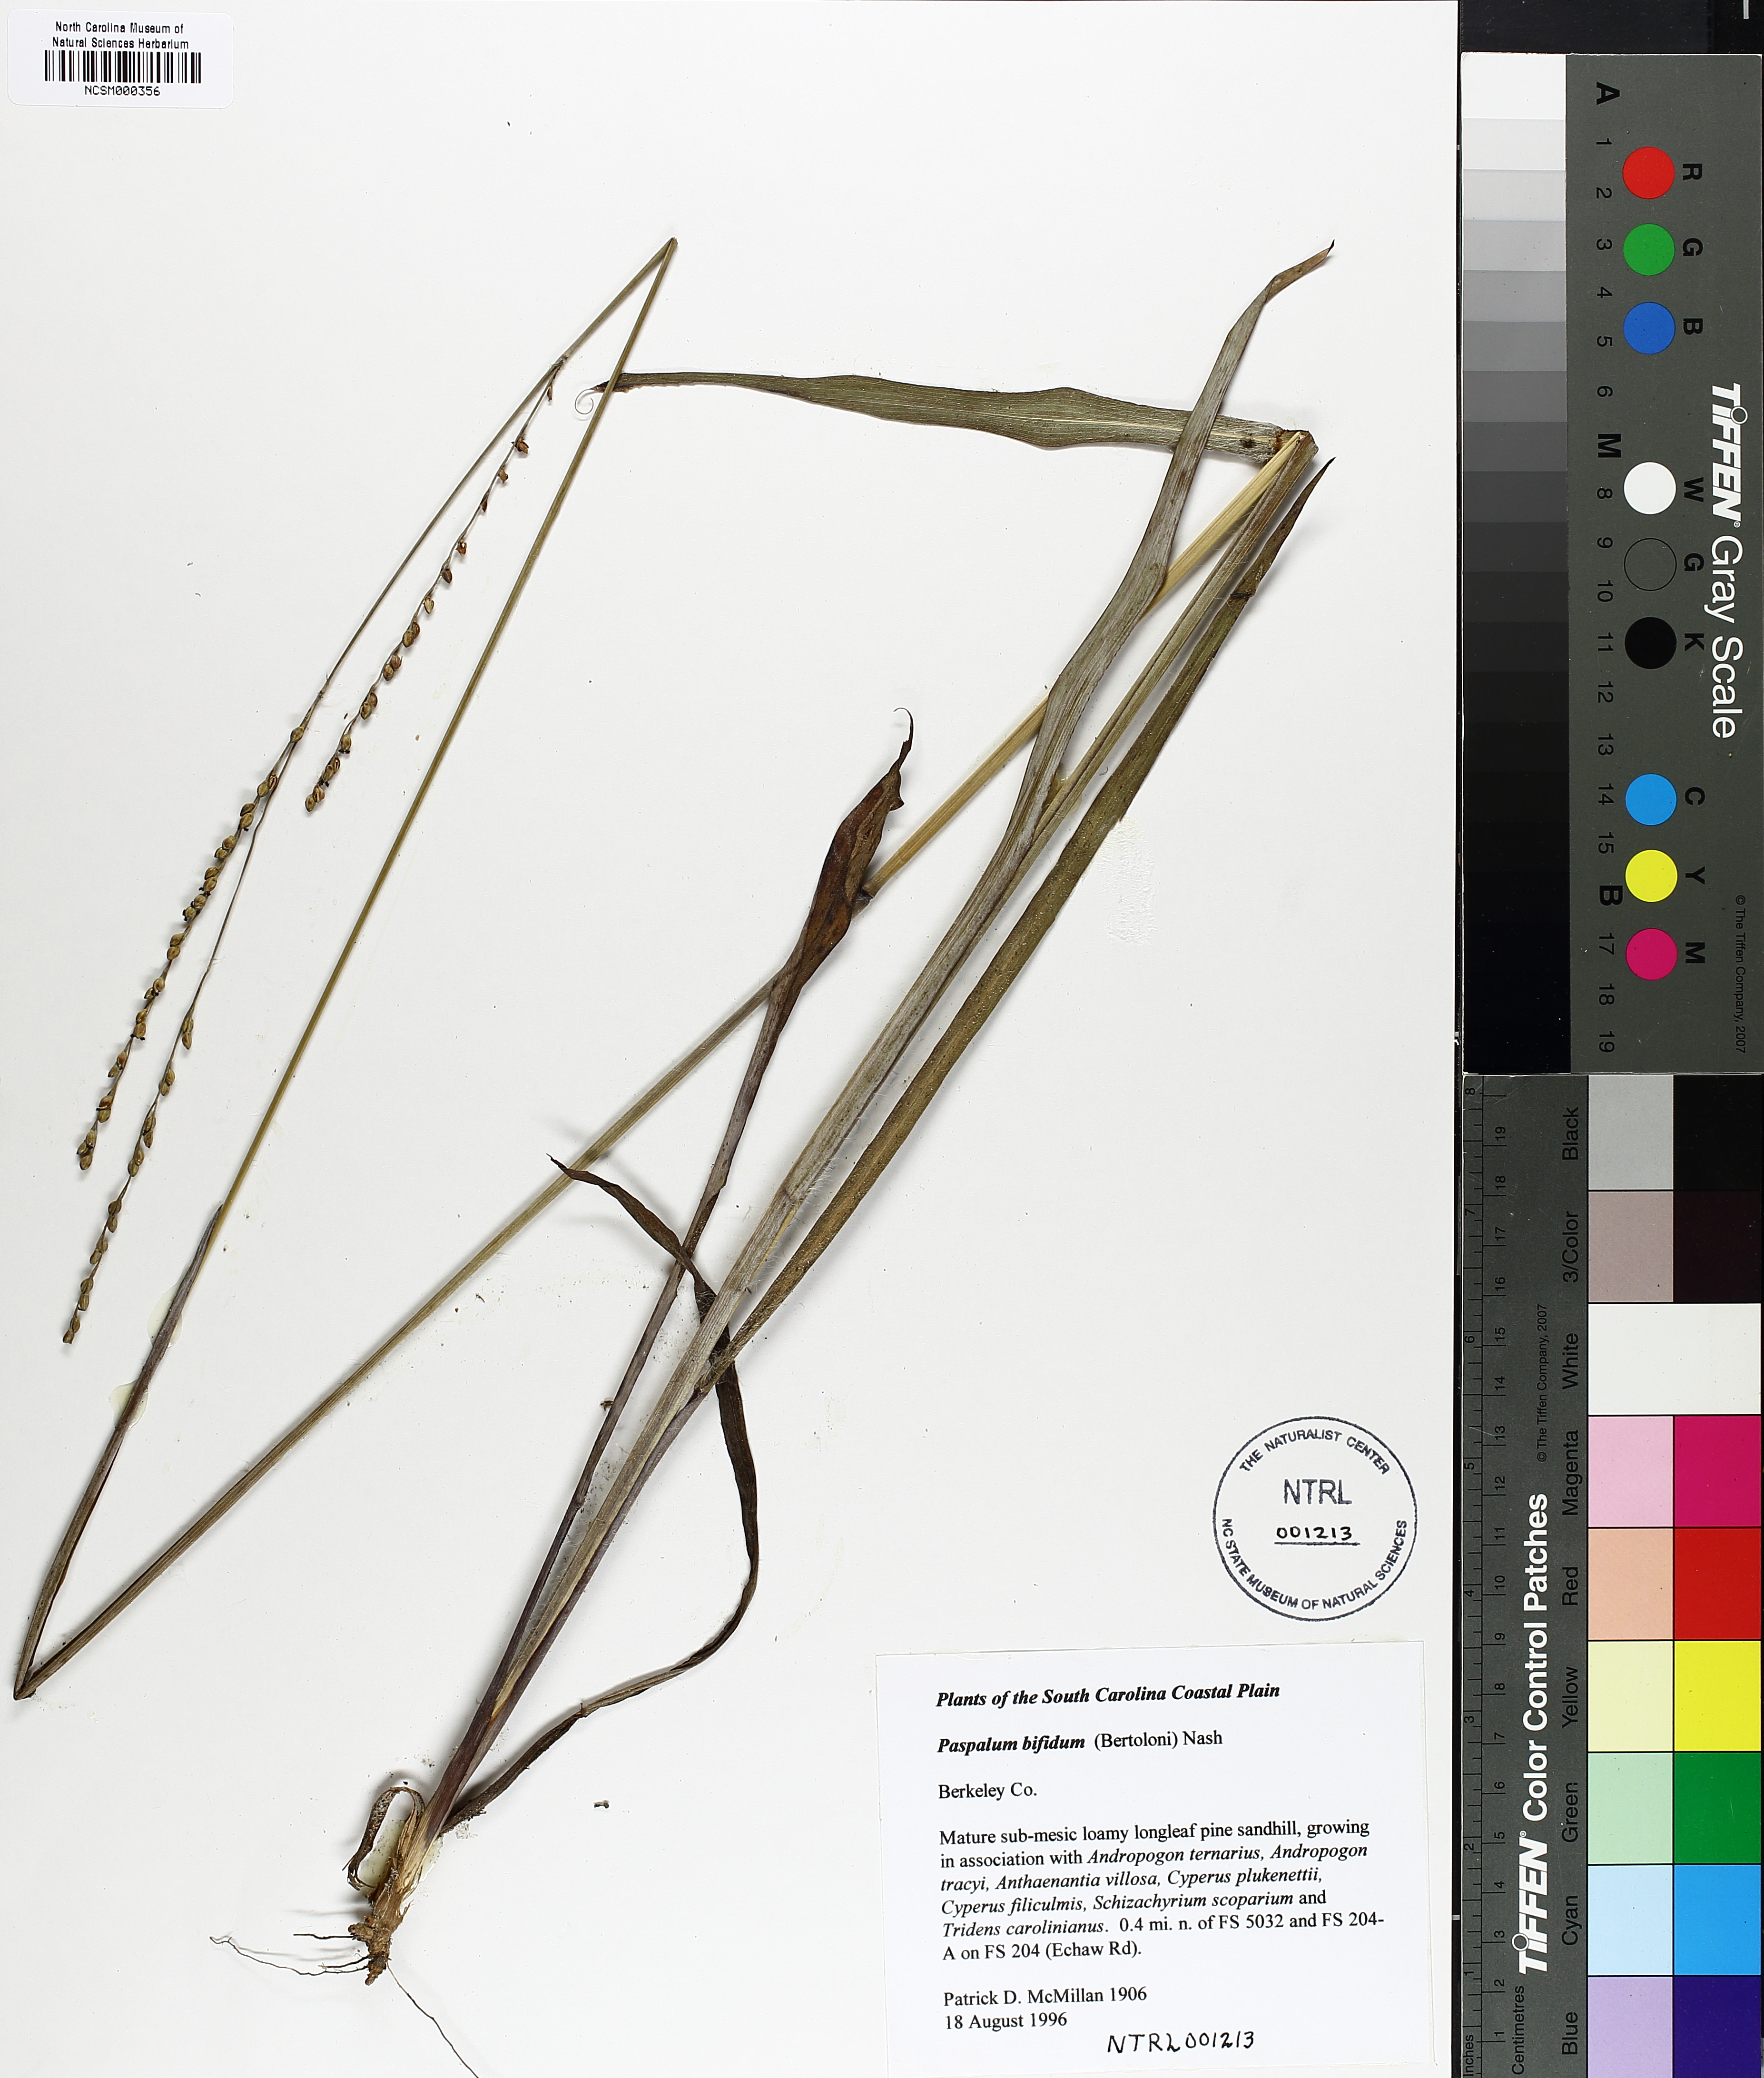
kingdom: Plantae
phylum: Tracheophyta
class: Liliopsida
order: Poales
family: Poaceae
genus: Paspalum
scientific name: Paspalum bifidum
